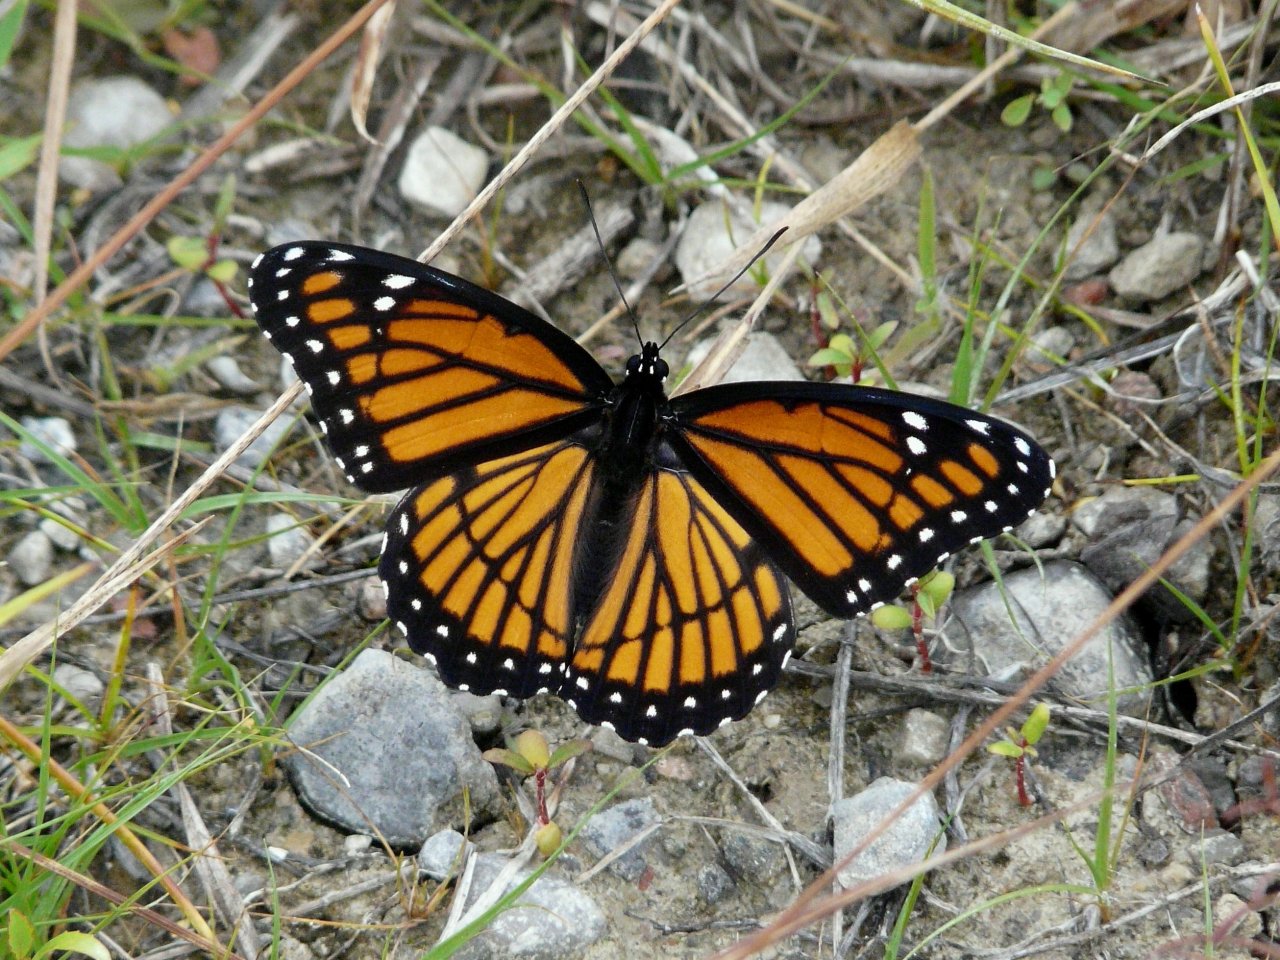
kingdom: Animalia
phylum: Arthropoda
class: Insecta
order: Lepidoptera
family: Nymphalidae
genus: Limenitis
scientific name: Limenitis archippus
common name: Viceroy
